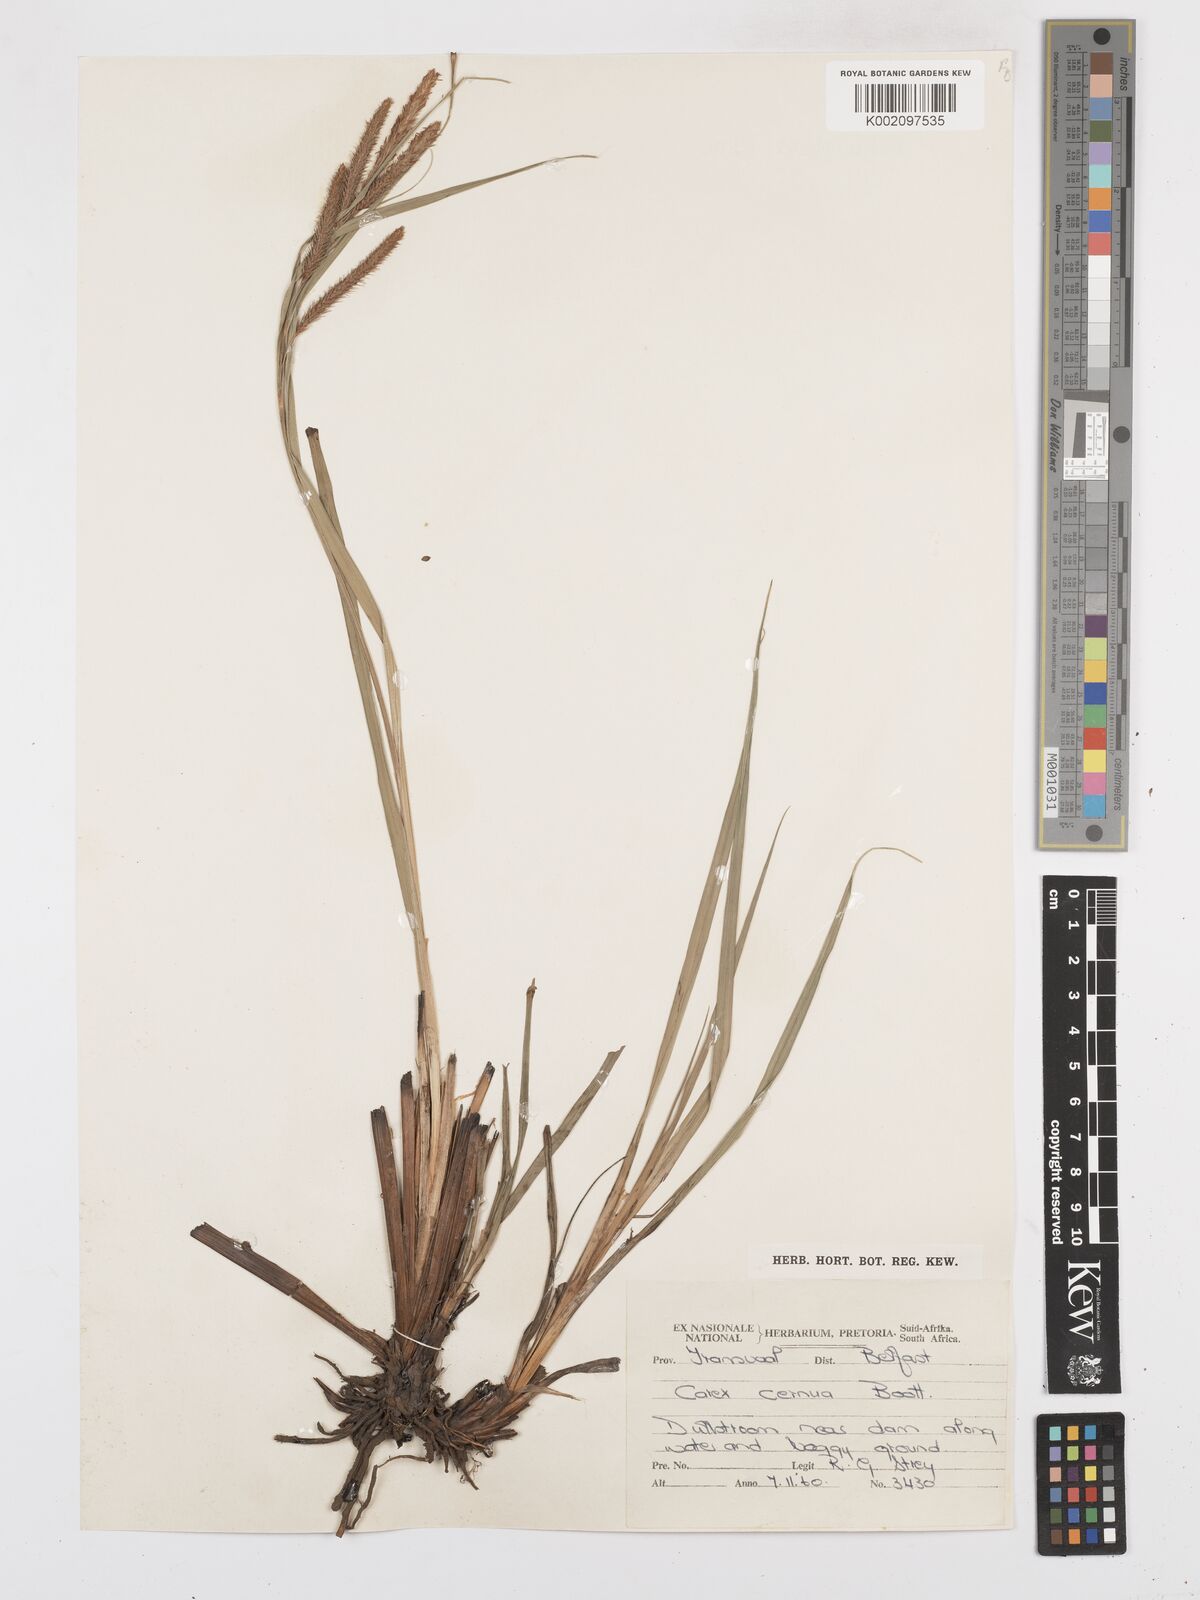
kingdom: Plantae
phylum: Tracheophyta
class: Liliopsida
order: Poales
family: Cyperaceae
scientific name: Cyperaceae
